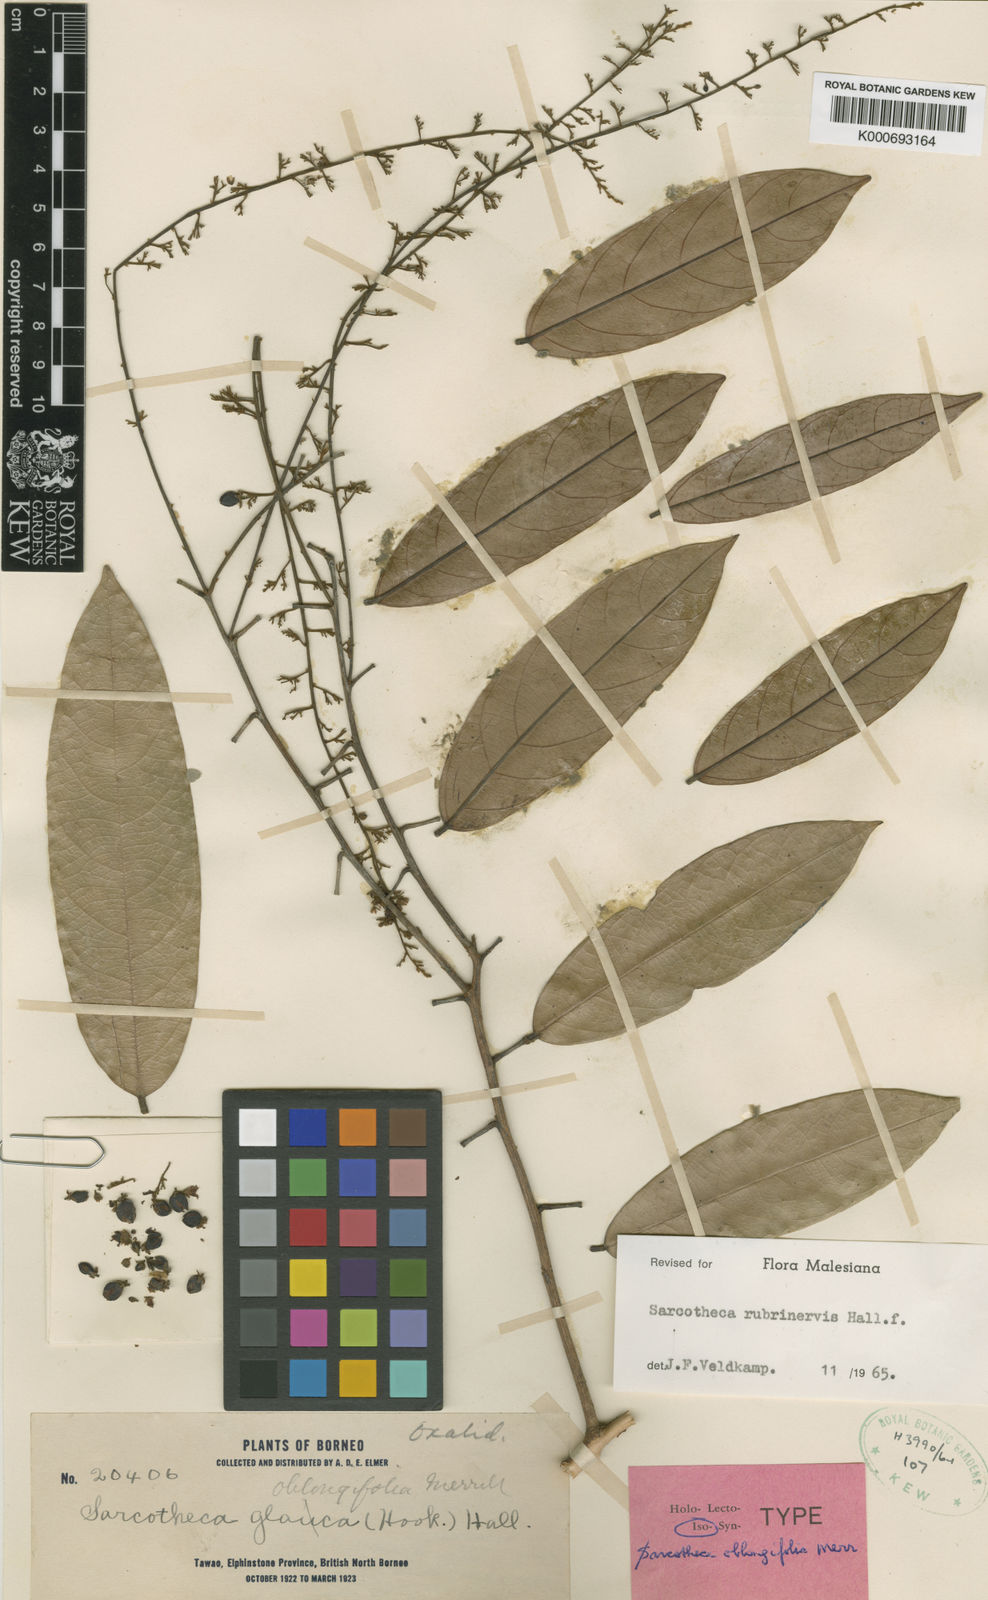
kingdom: Plantae
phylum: Tracheophyta
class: Magnoliopsida
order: Oxalidales
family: Oxalidaceae
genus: Sarcotheca
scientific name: Sarcotheca rubrinervis
